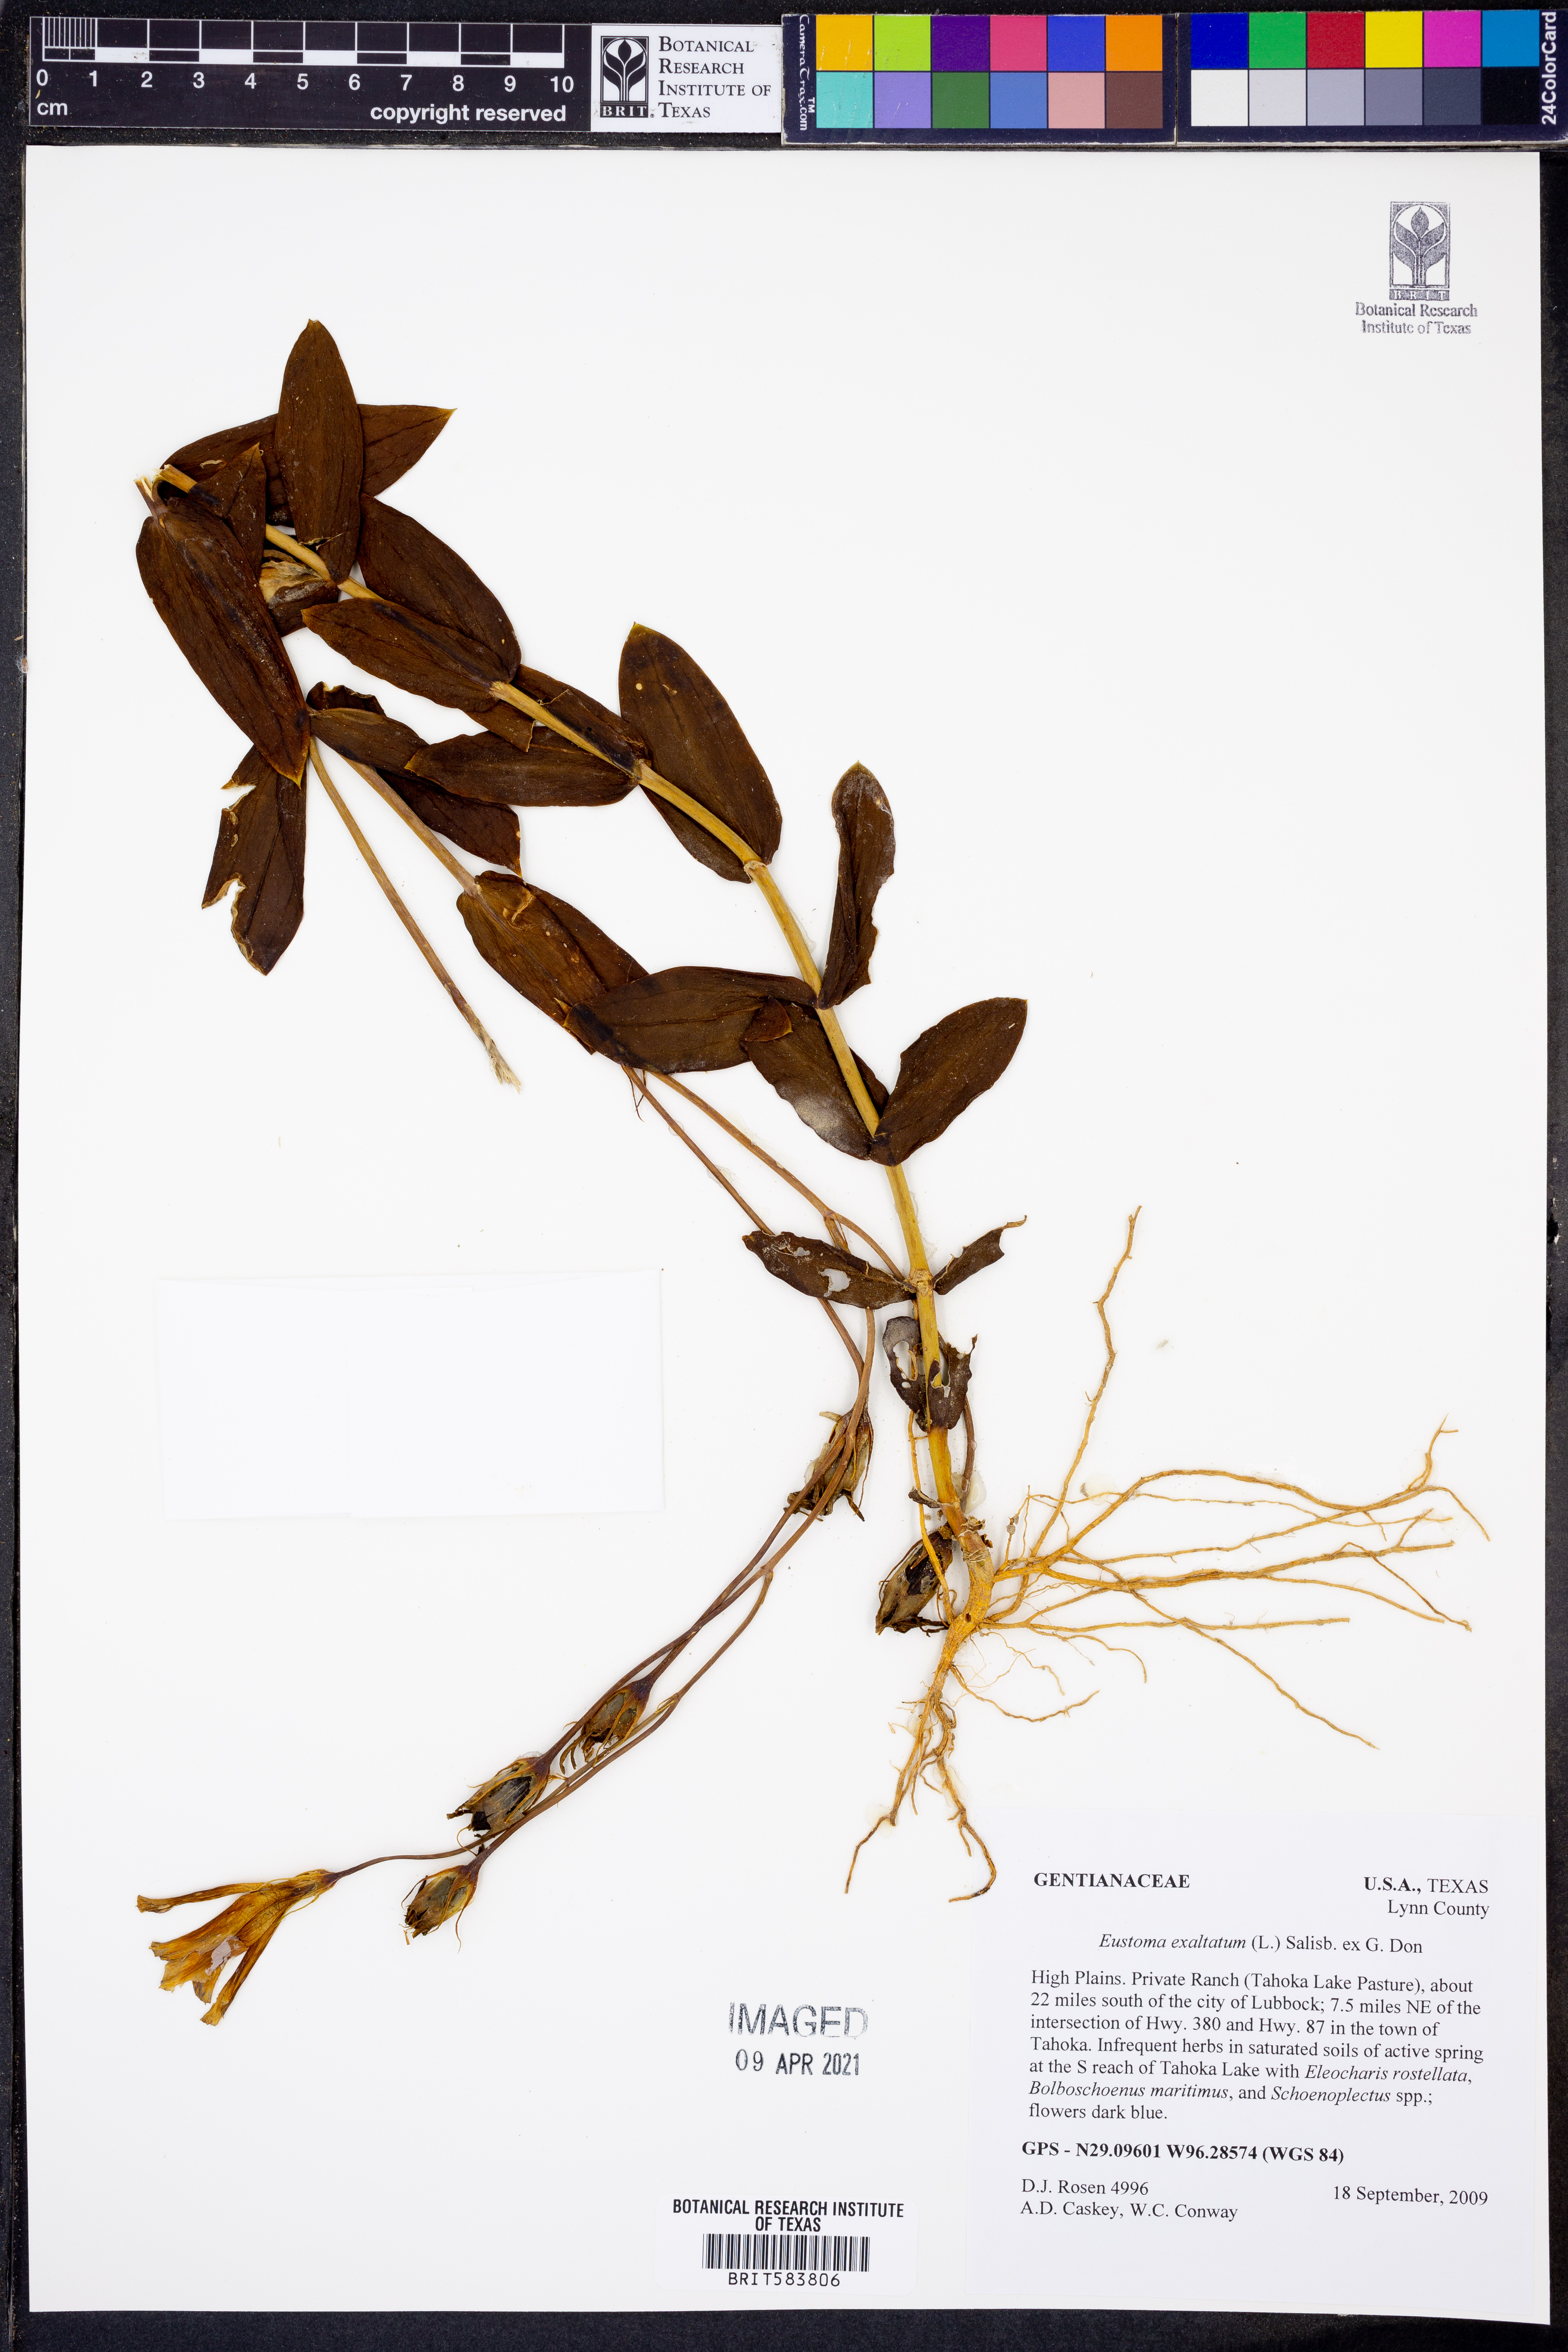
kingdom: Plantae
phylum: Tracheophyta
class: Magnoliopsida
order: Gentianales
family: Gentianaceae
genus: Eustoma
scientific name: Eustoma exaltatum
